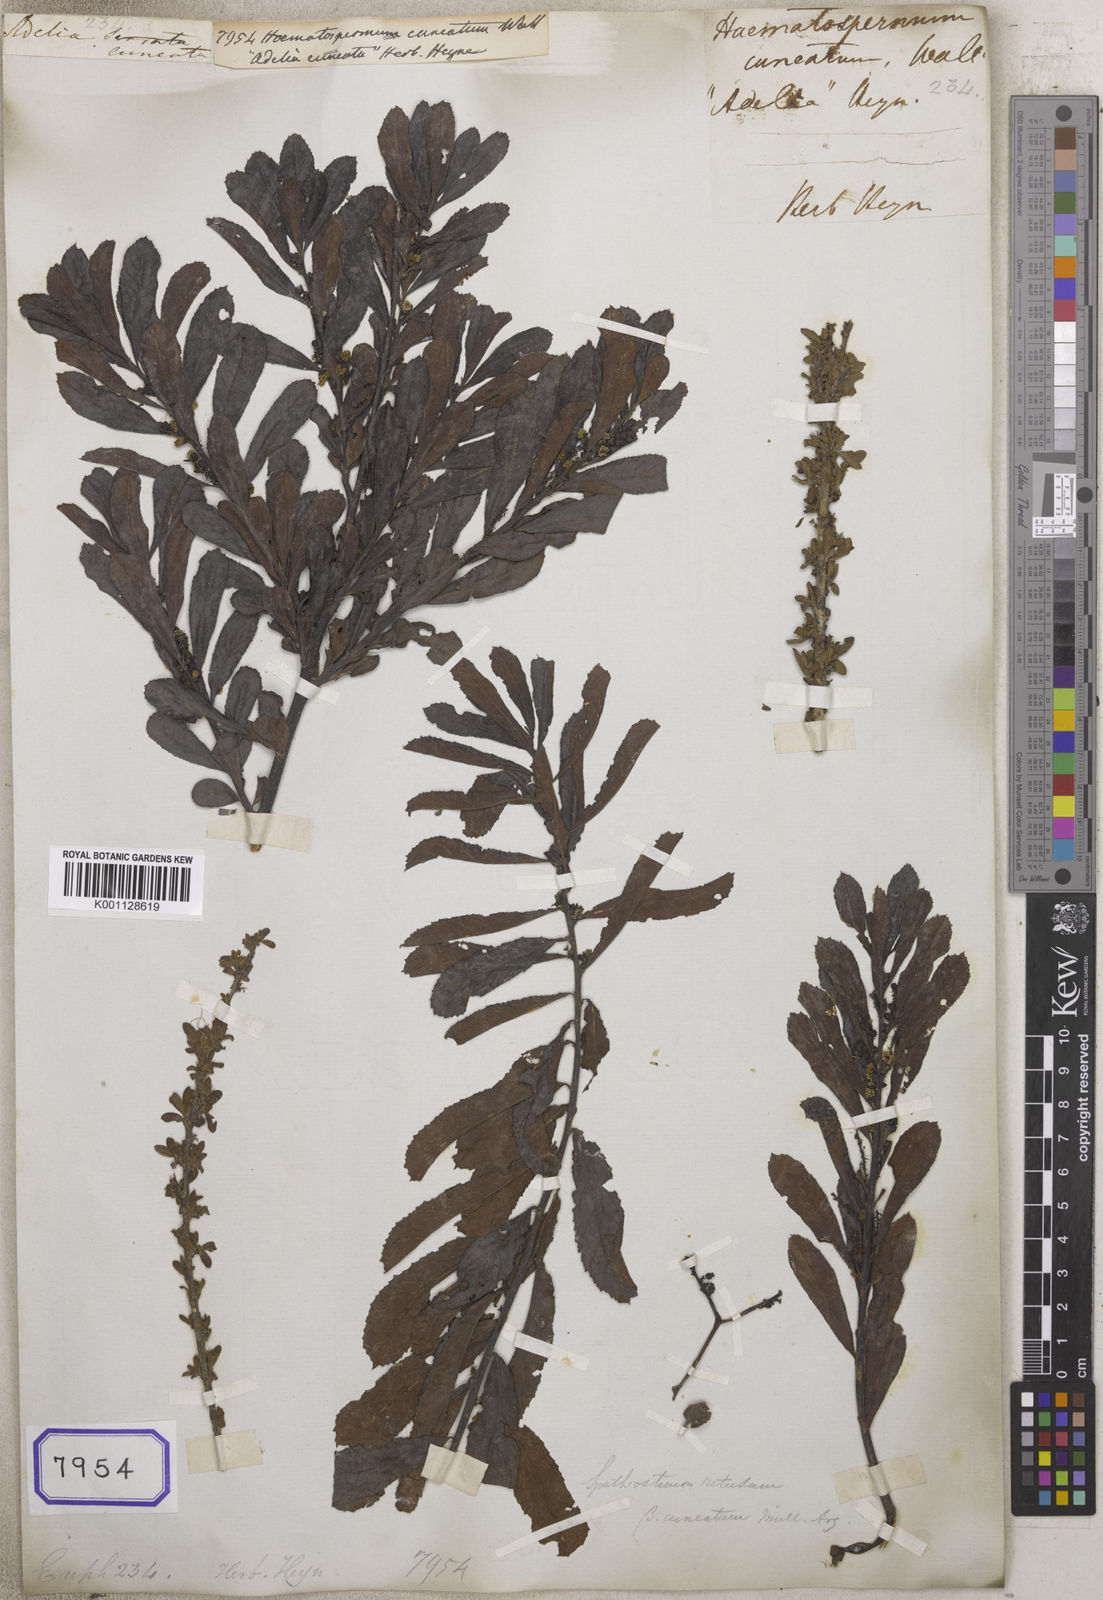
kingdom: Plantae
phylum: Tracheophyta
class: Magnoliopsida
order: Malpighiales
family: Euphorbiaceae
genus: Homonoia
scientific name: Homonoia
